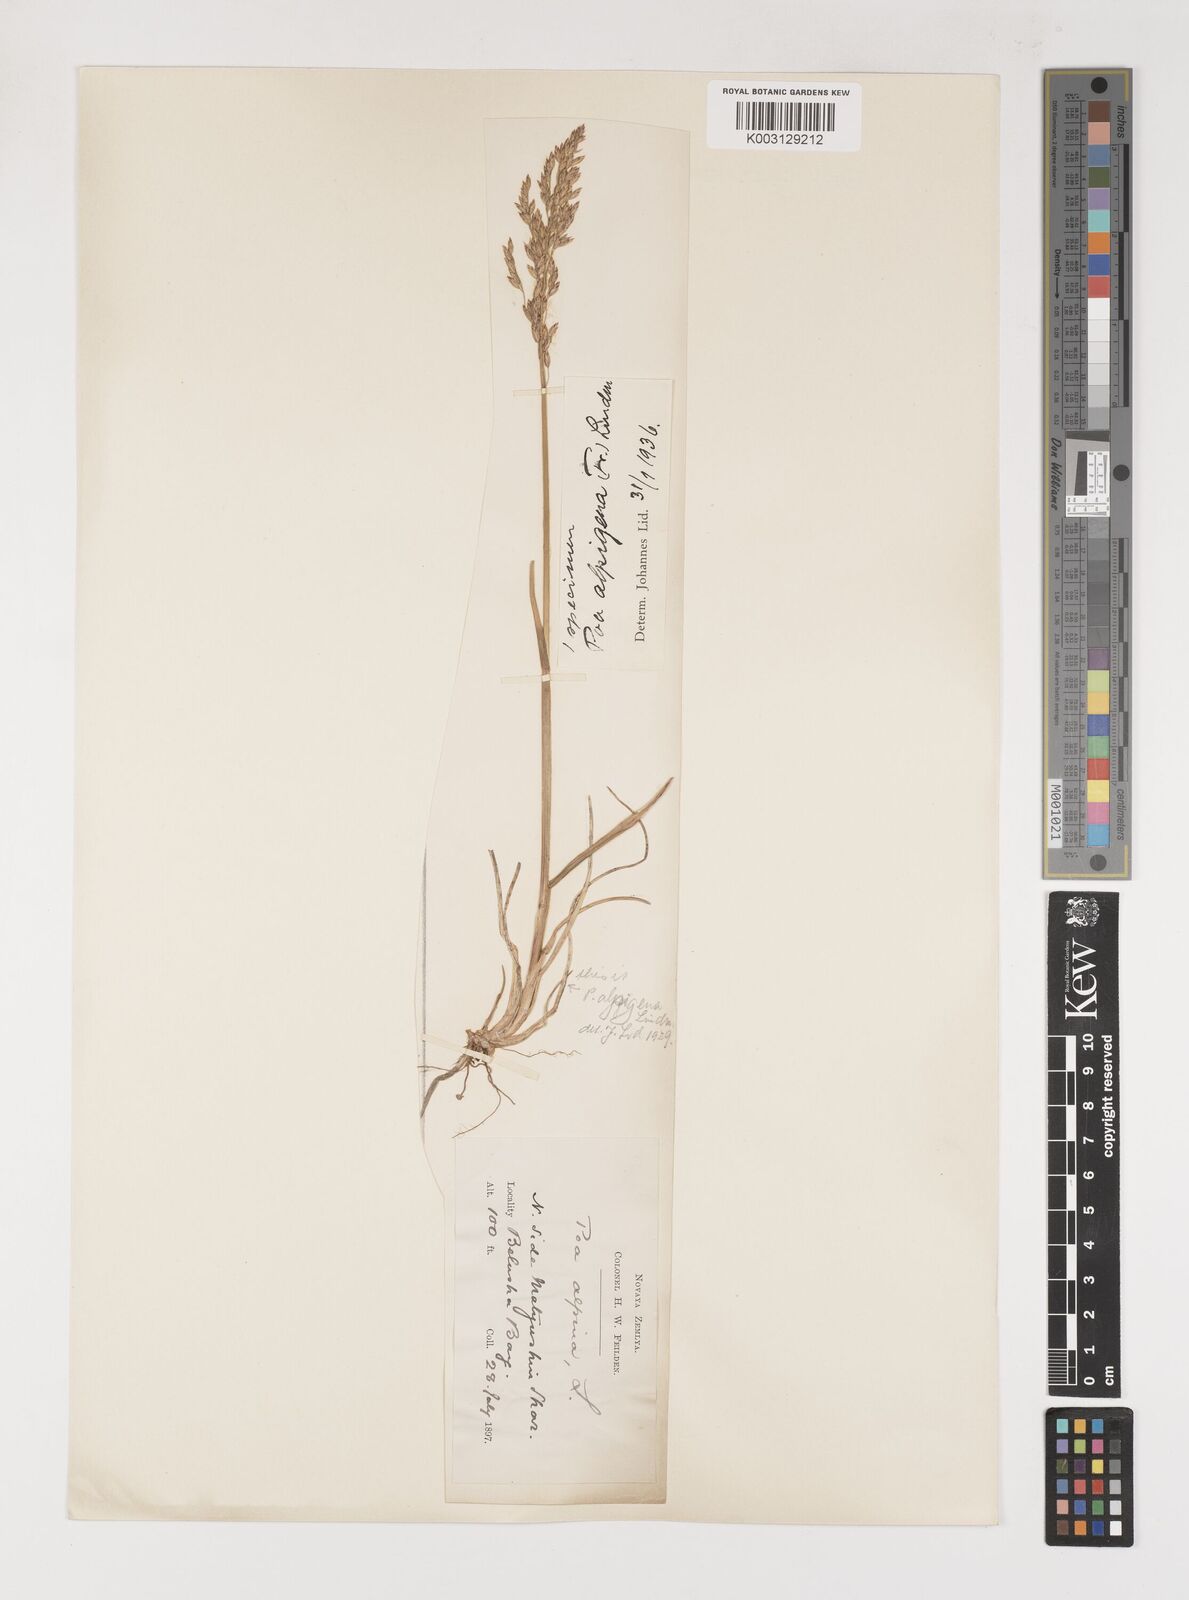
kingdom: Plantae
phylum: Tracheophyta
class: Liliopsida
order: Poales
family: Poaceae
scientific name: Poaceae
